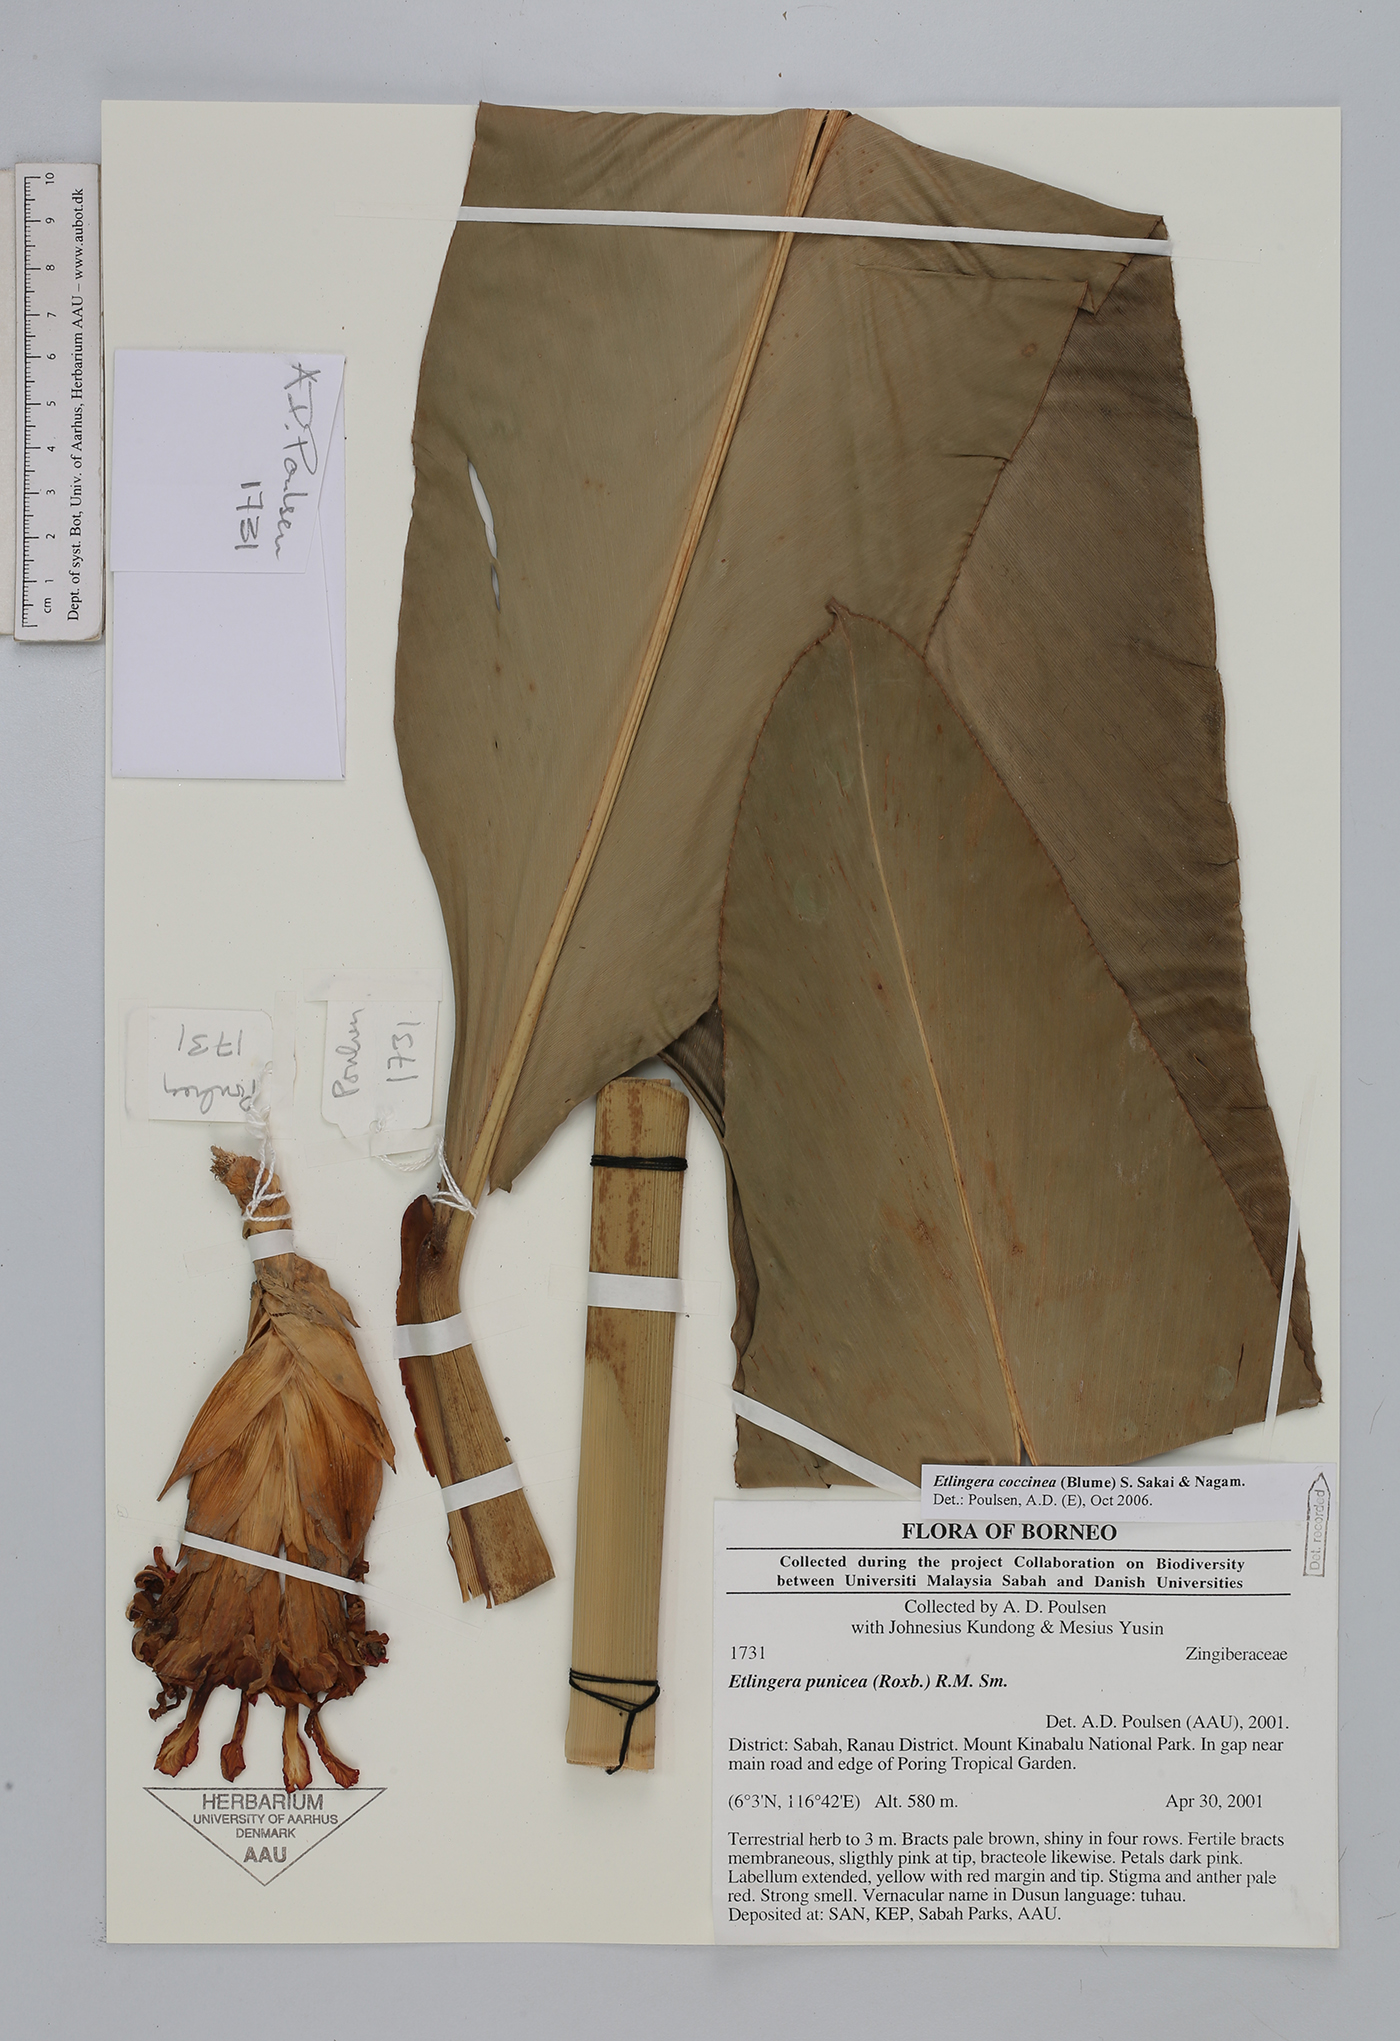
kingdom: Plantae
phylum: Tracheophyta
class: Liliopsida
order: Zingiberales
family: Zingiberaceae
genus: Etlingera
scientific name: Etlingera coccinea
